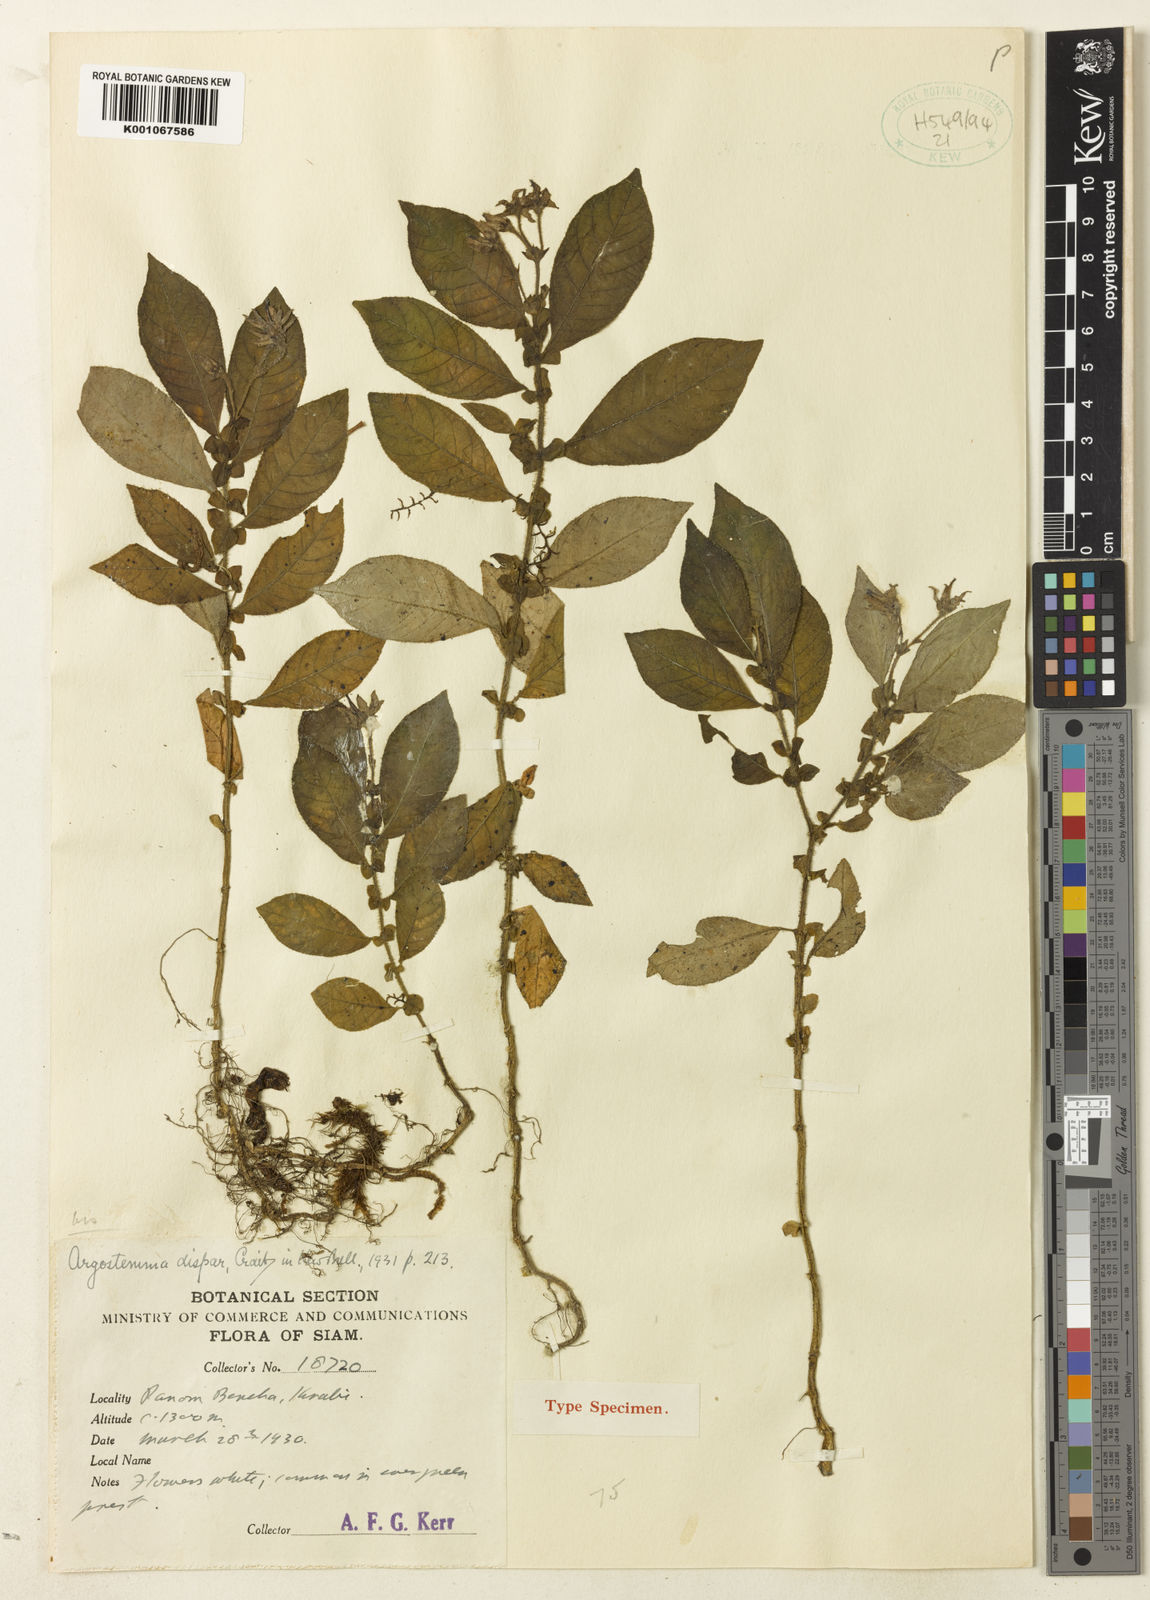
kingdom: Plantae
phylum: Tracheophyta
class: Magnoliopsida
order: Gentianales
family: Rubiaceae
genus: Argostemma
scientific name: Argostemma dispar
